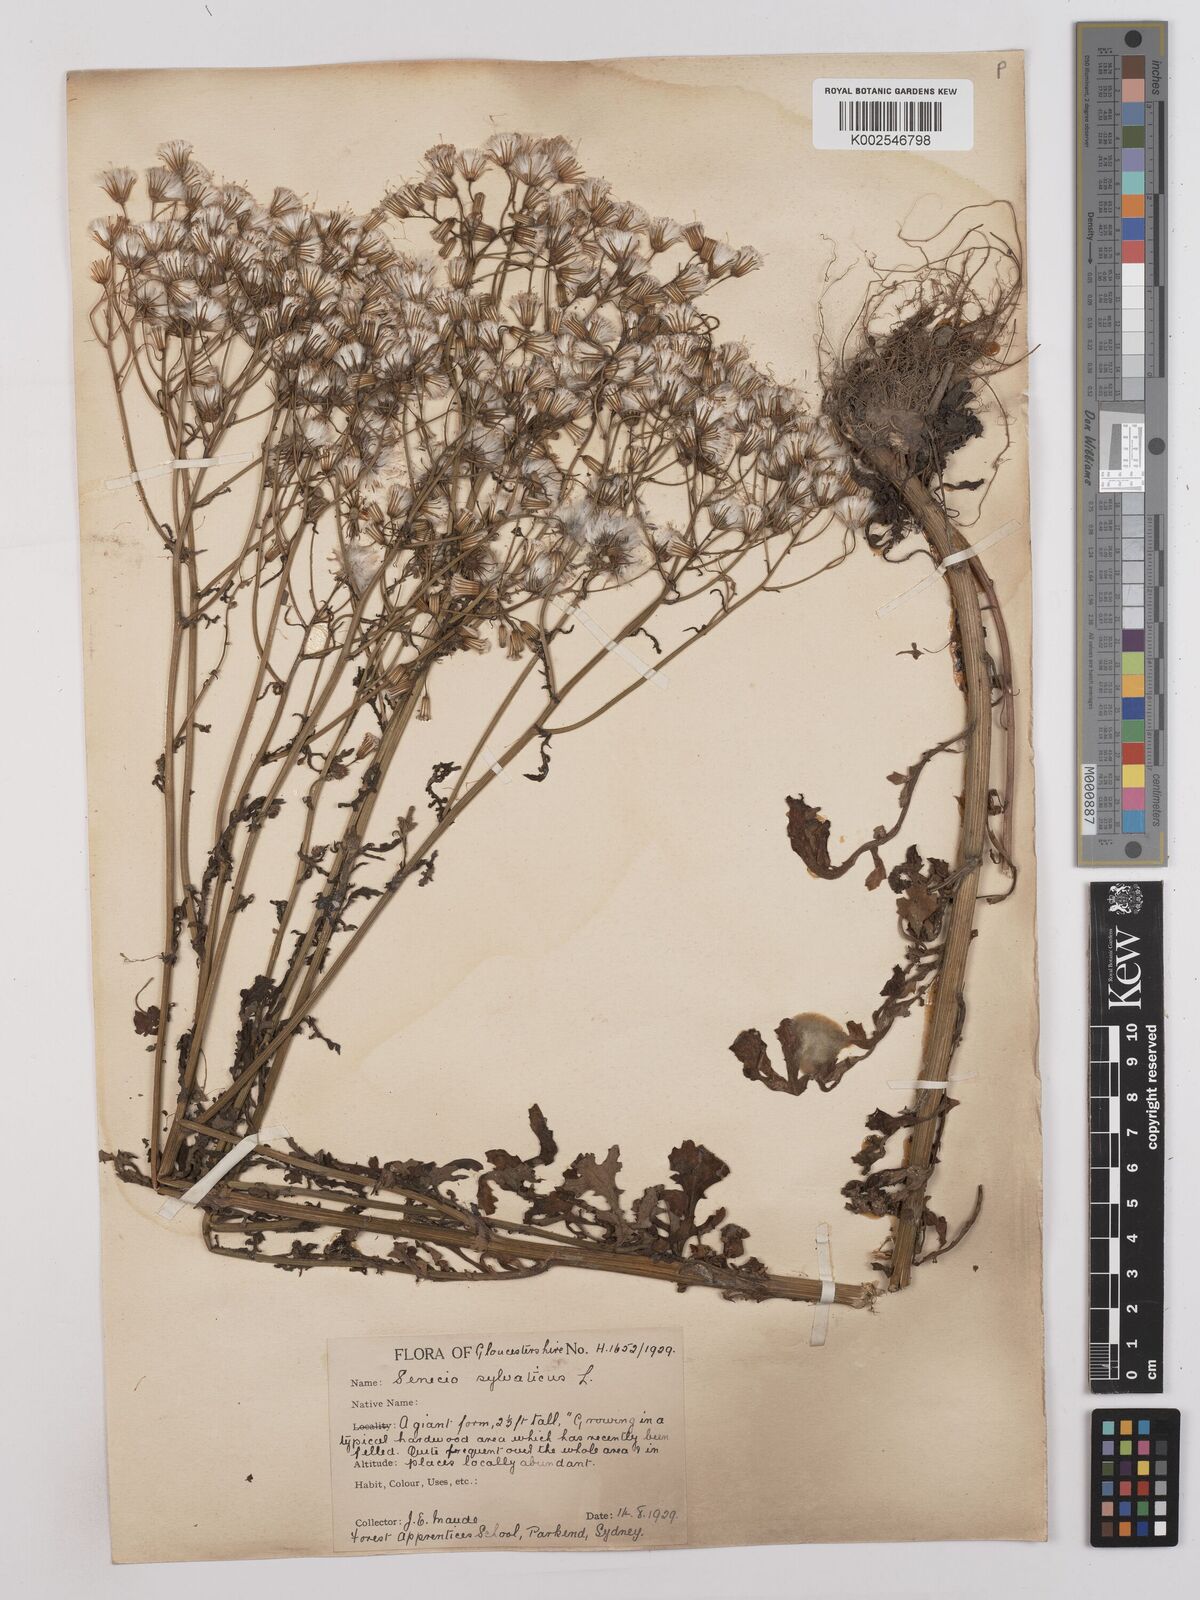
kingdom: Plantae
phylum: Tracheophyta
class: Magnoliopsida
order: Asterales
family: Asteraceae
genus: Senecio
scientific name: Senecio sylvaticus
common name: Woodland ragwort
